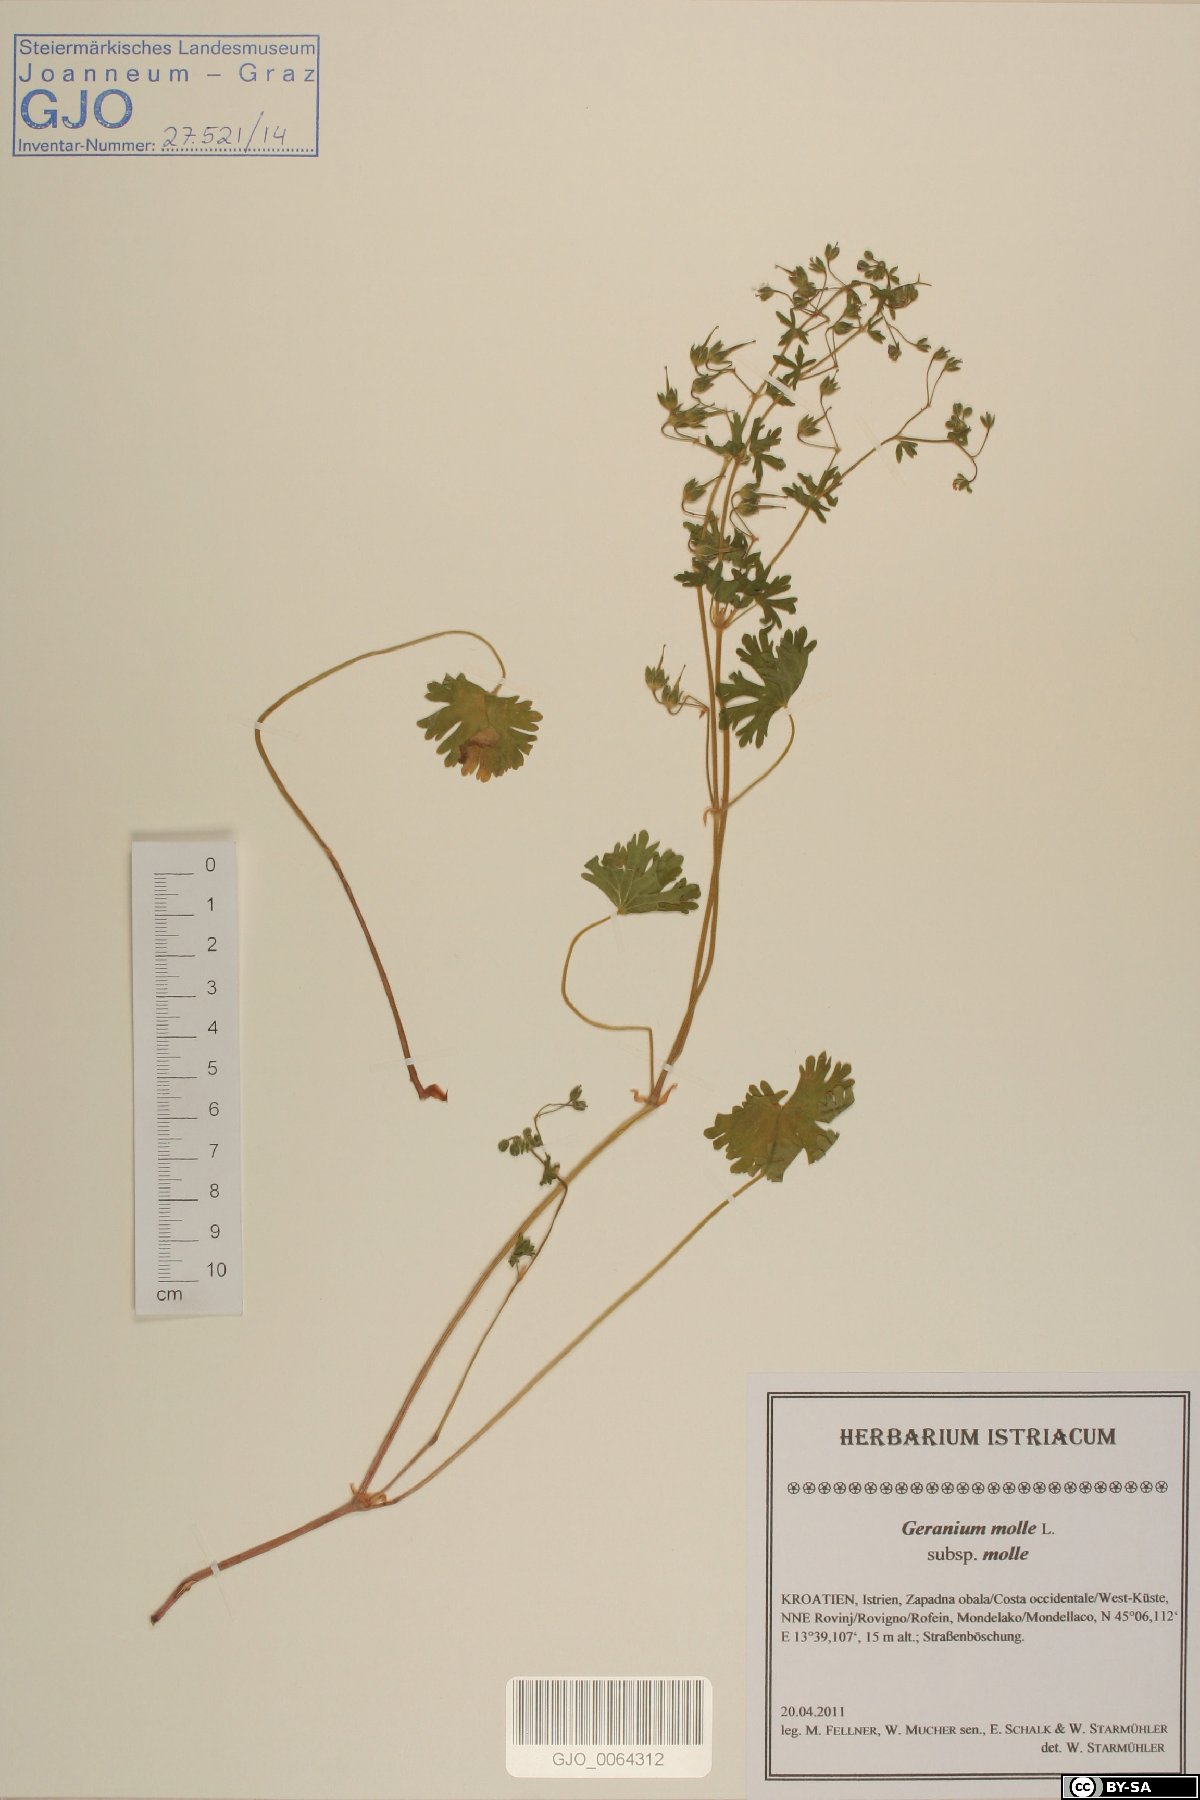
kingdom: Plantae
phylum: Tracheophyta
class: Magnoliopsida
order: Geraniales
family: Geraniaceae
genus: Geranium
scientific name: Geranium molle
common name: Dove's-foot crane's-bill
